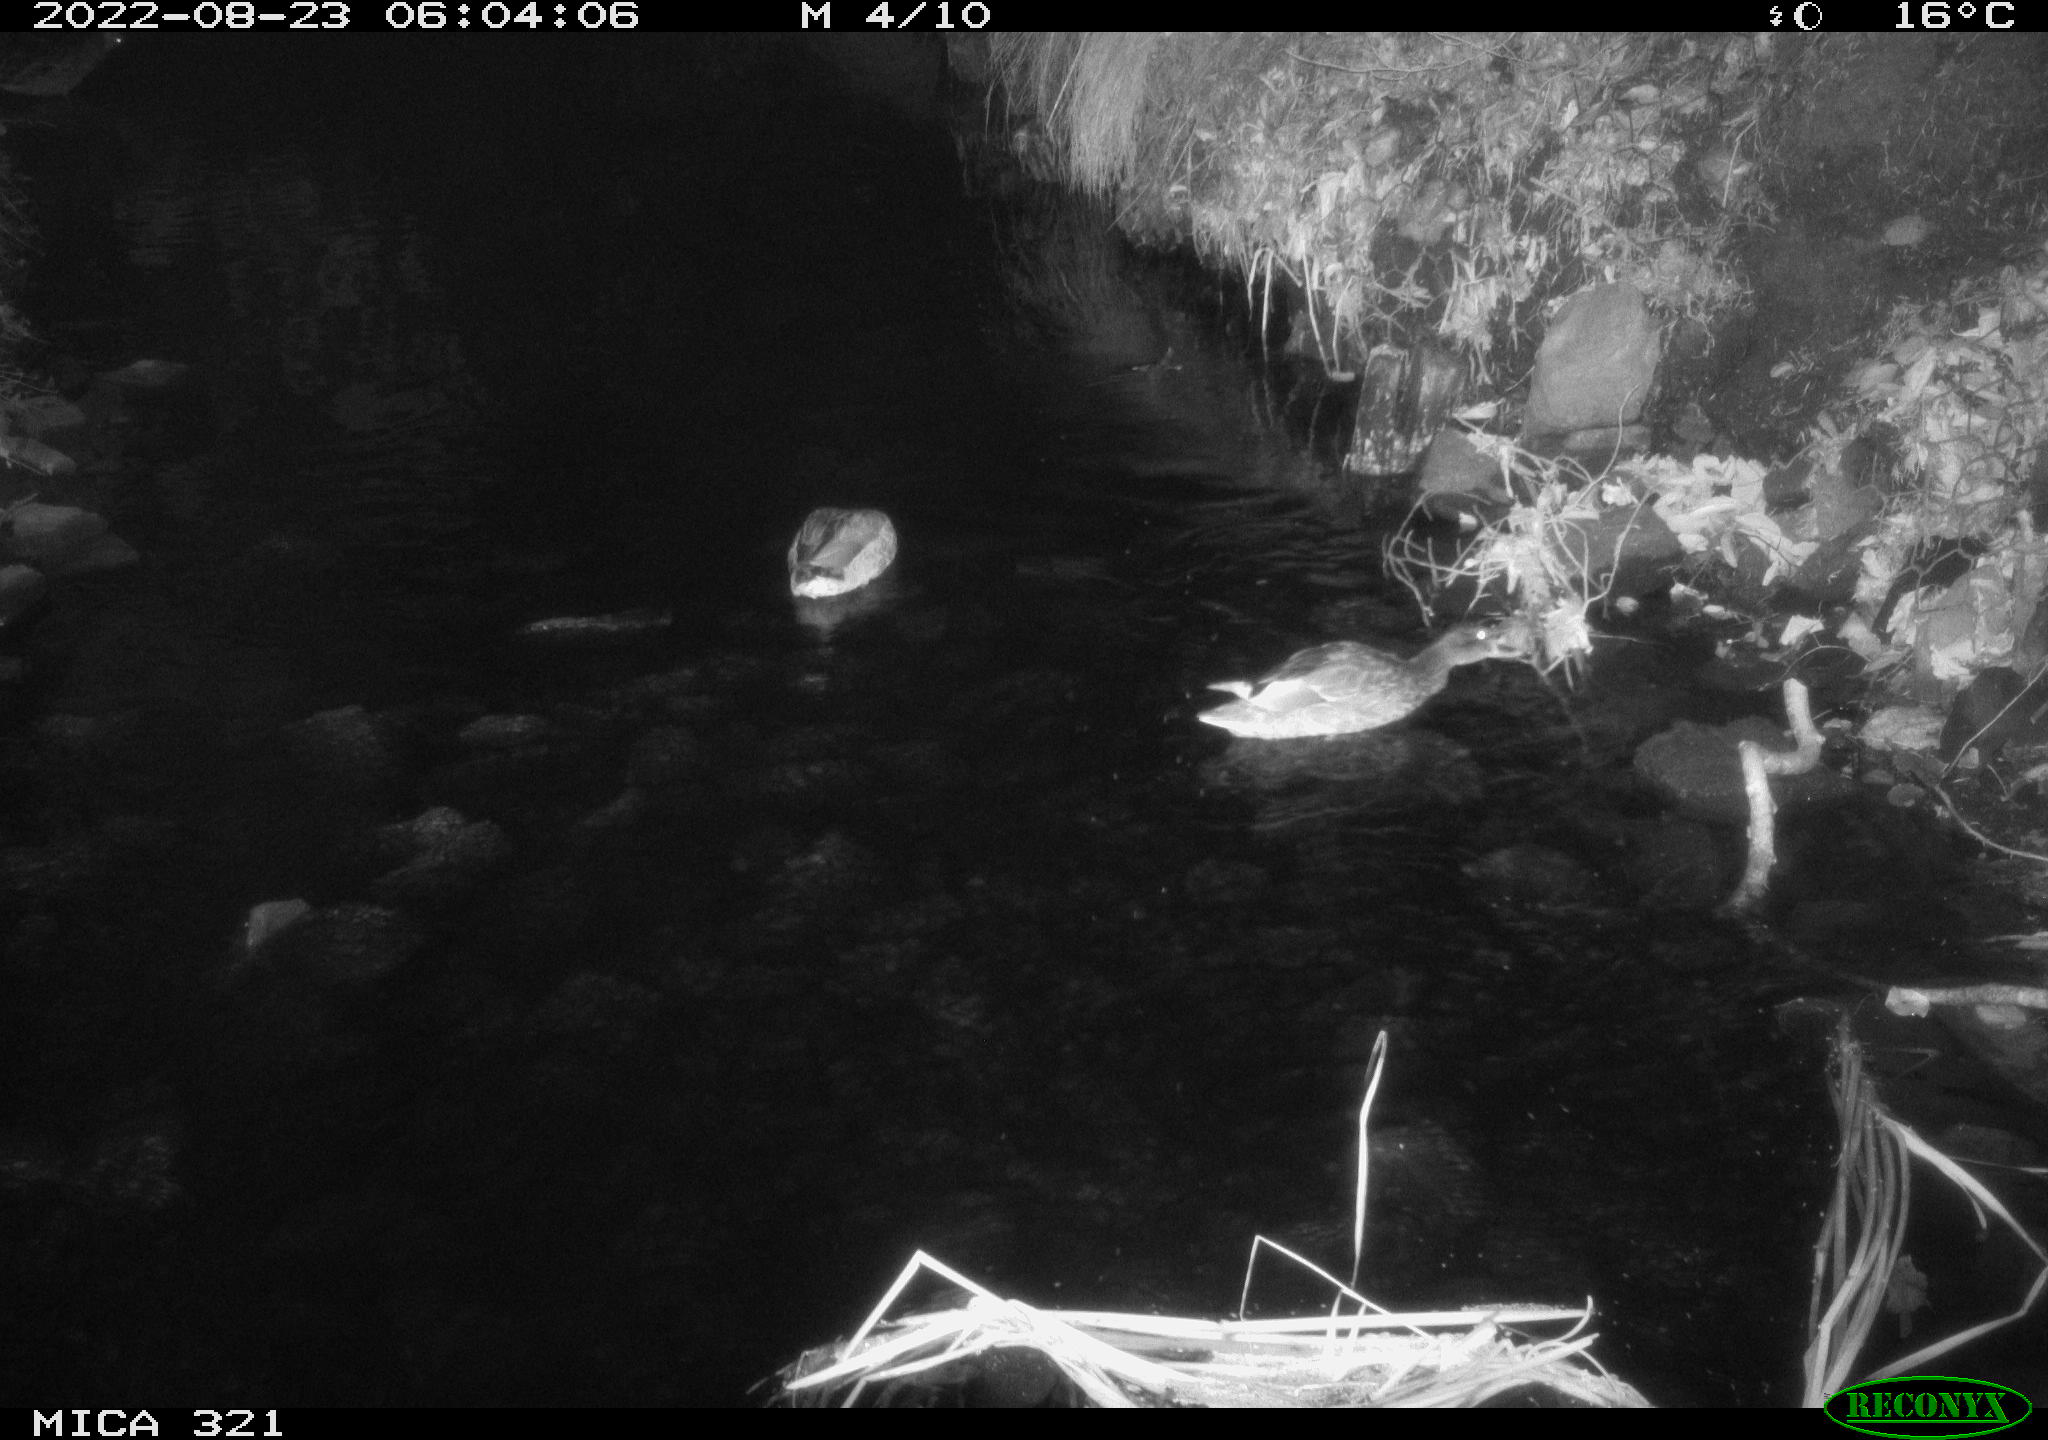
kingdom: Animalia
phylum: Chordata
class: Aves
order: Anseriformes
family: Anatidae
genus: Anas
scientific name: Anas platyrhynchos
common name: Mallard
